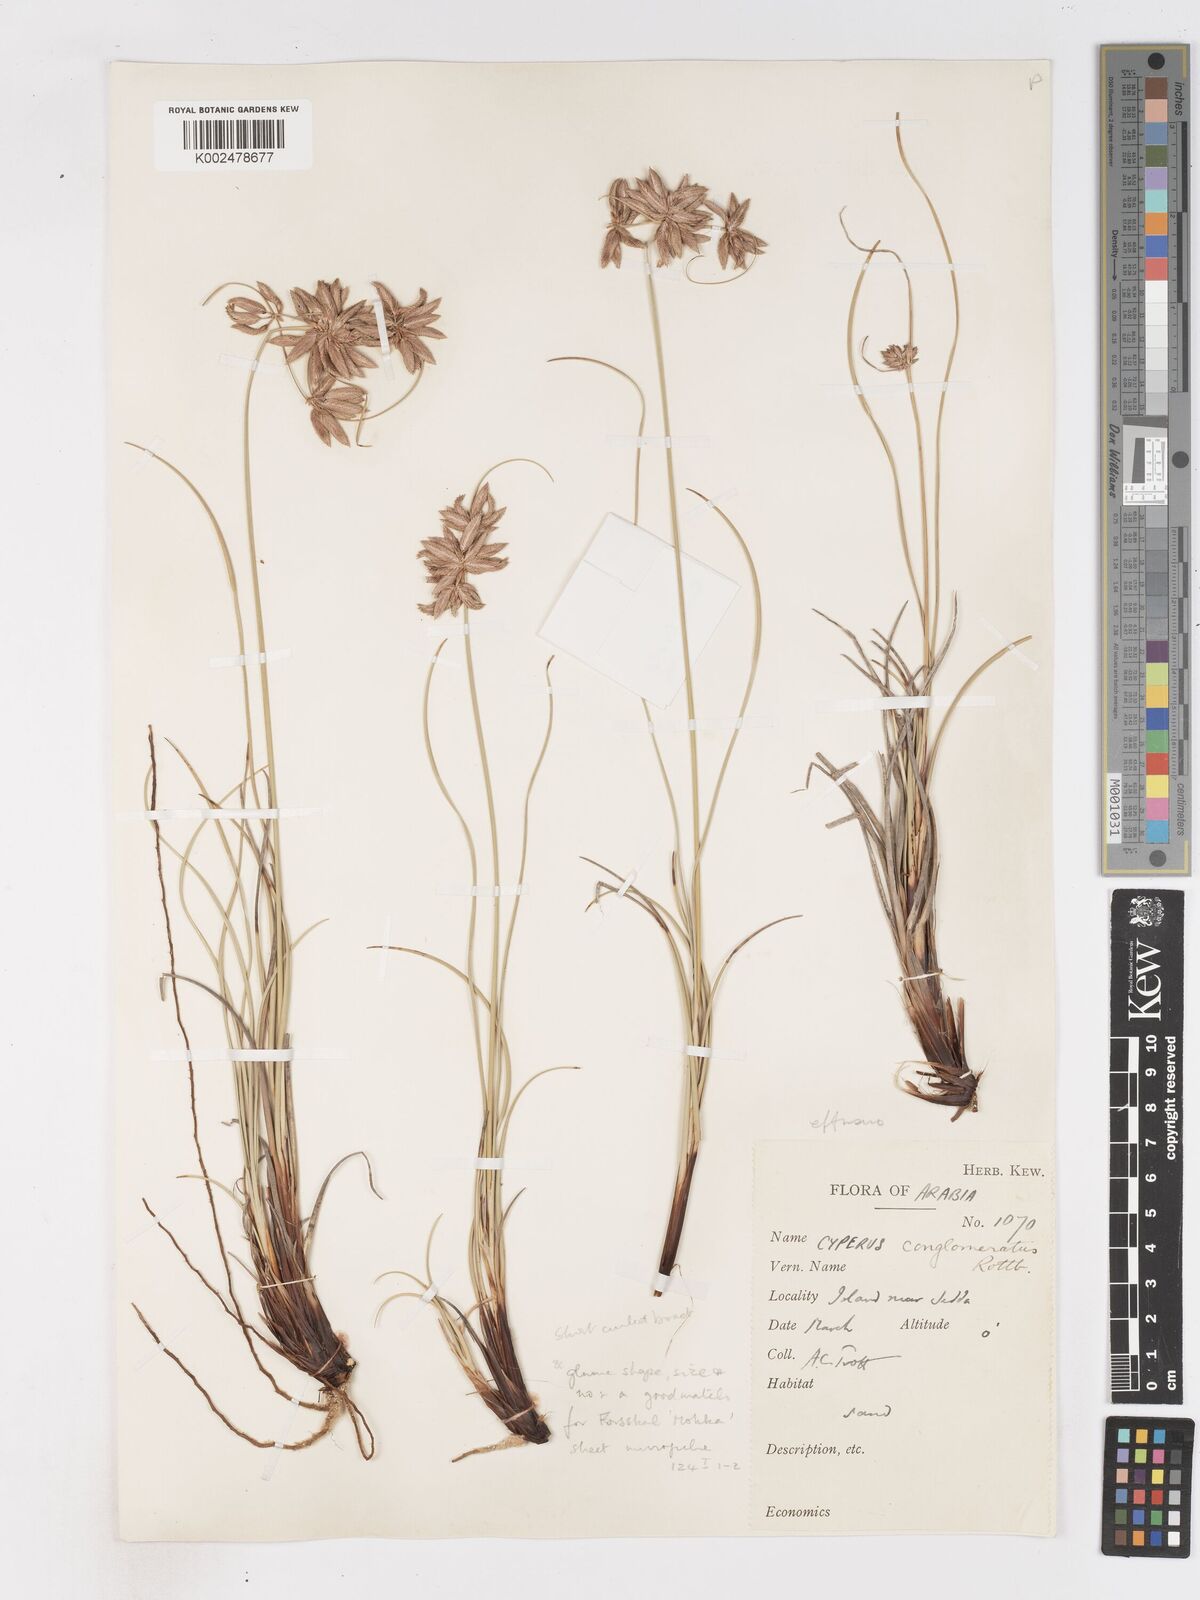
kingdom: Plantae
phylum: Tracheophyta
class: Liliopsida
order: Poales
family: Cyperaceae
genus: Cyperus
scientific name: Cyperus conglomeratus
